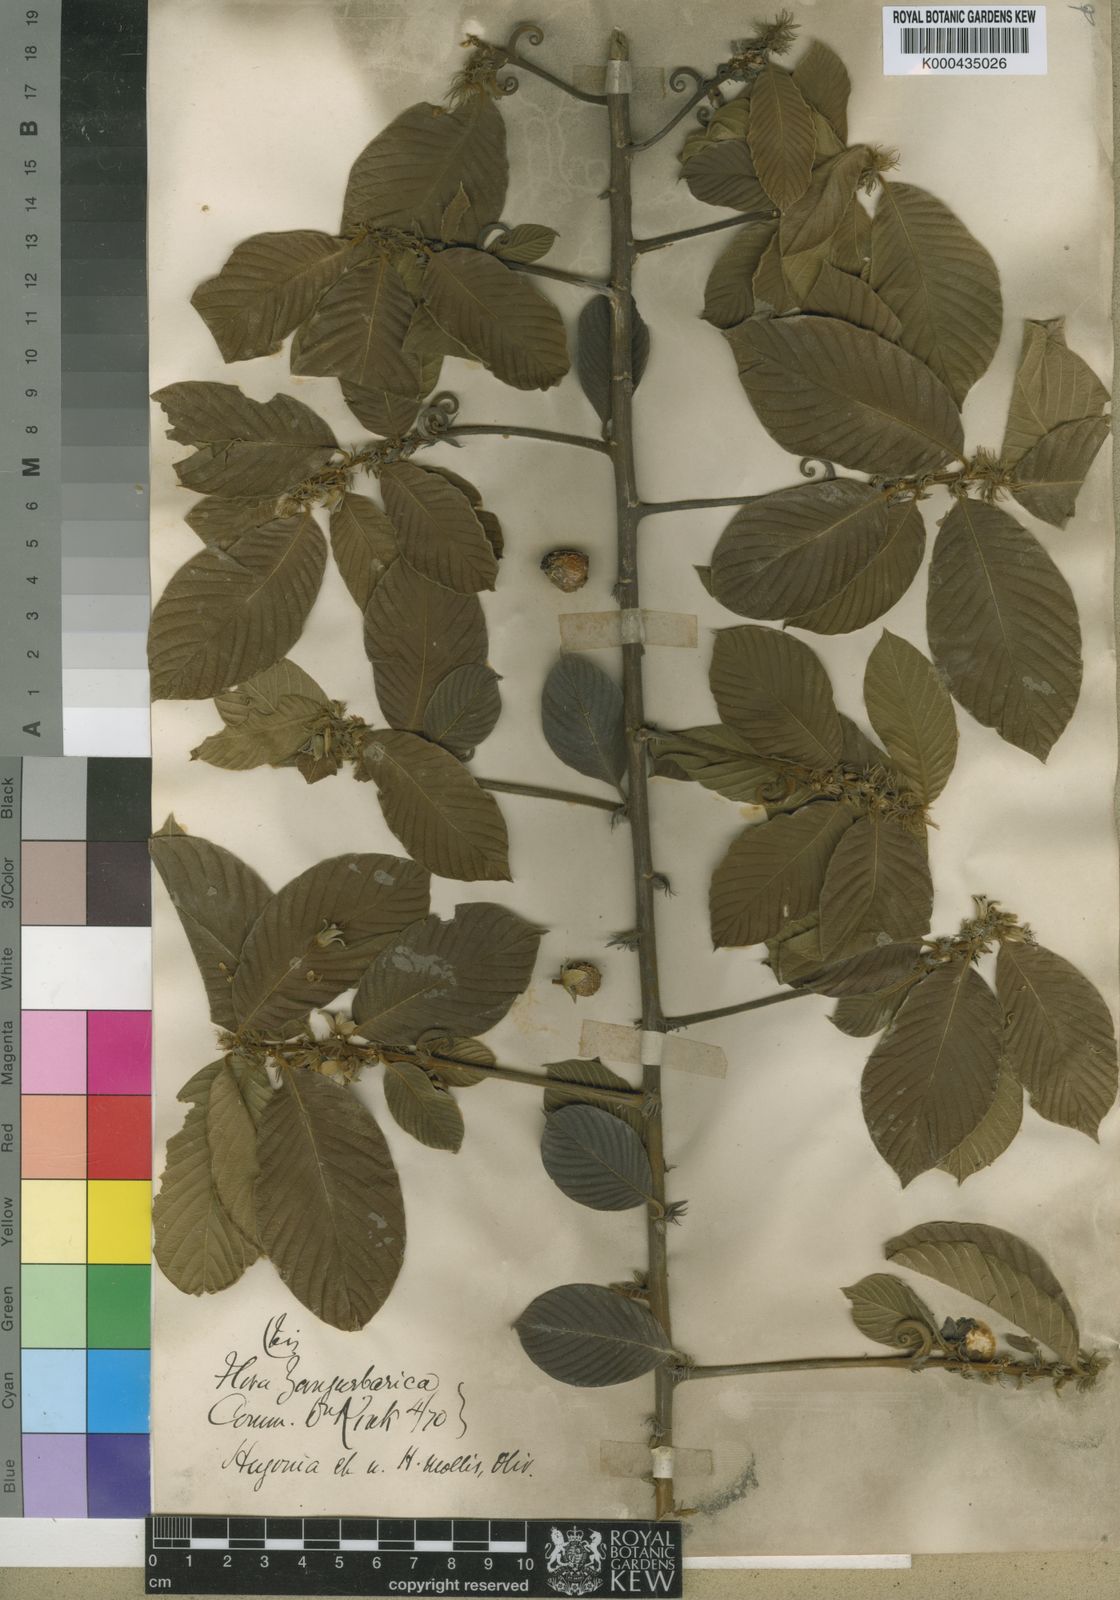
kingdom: Plantae
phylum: Tracheophyta
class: Magnoliopsida
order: Malpighiales
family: Linaceae
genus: Hugonia
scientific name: Hugonia castaneifolia
